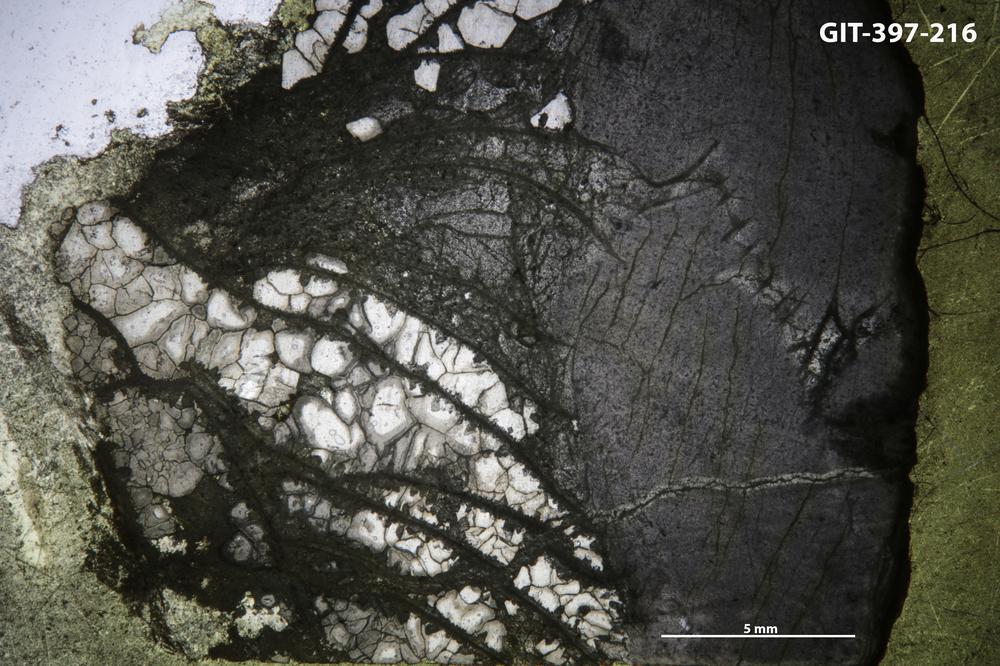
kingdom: Animalia
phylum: Cnidaria
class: Anthozoa
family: Ketophyllidae
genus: Dokophyllum
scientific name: Dokophyllum
